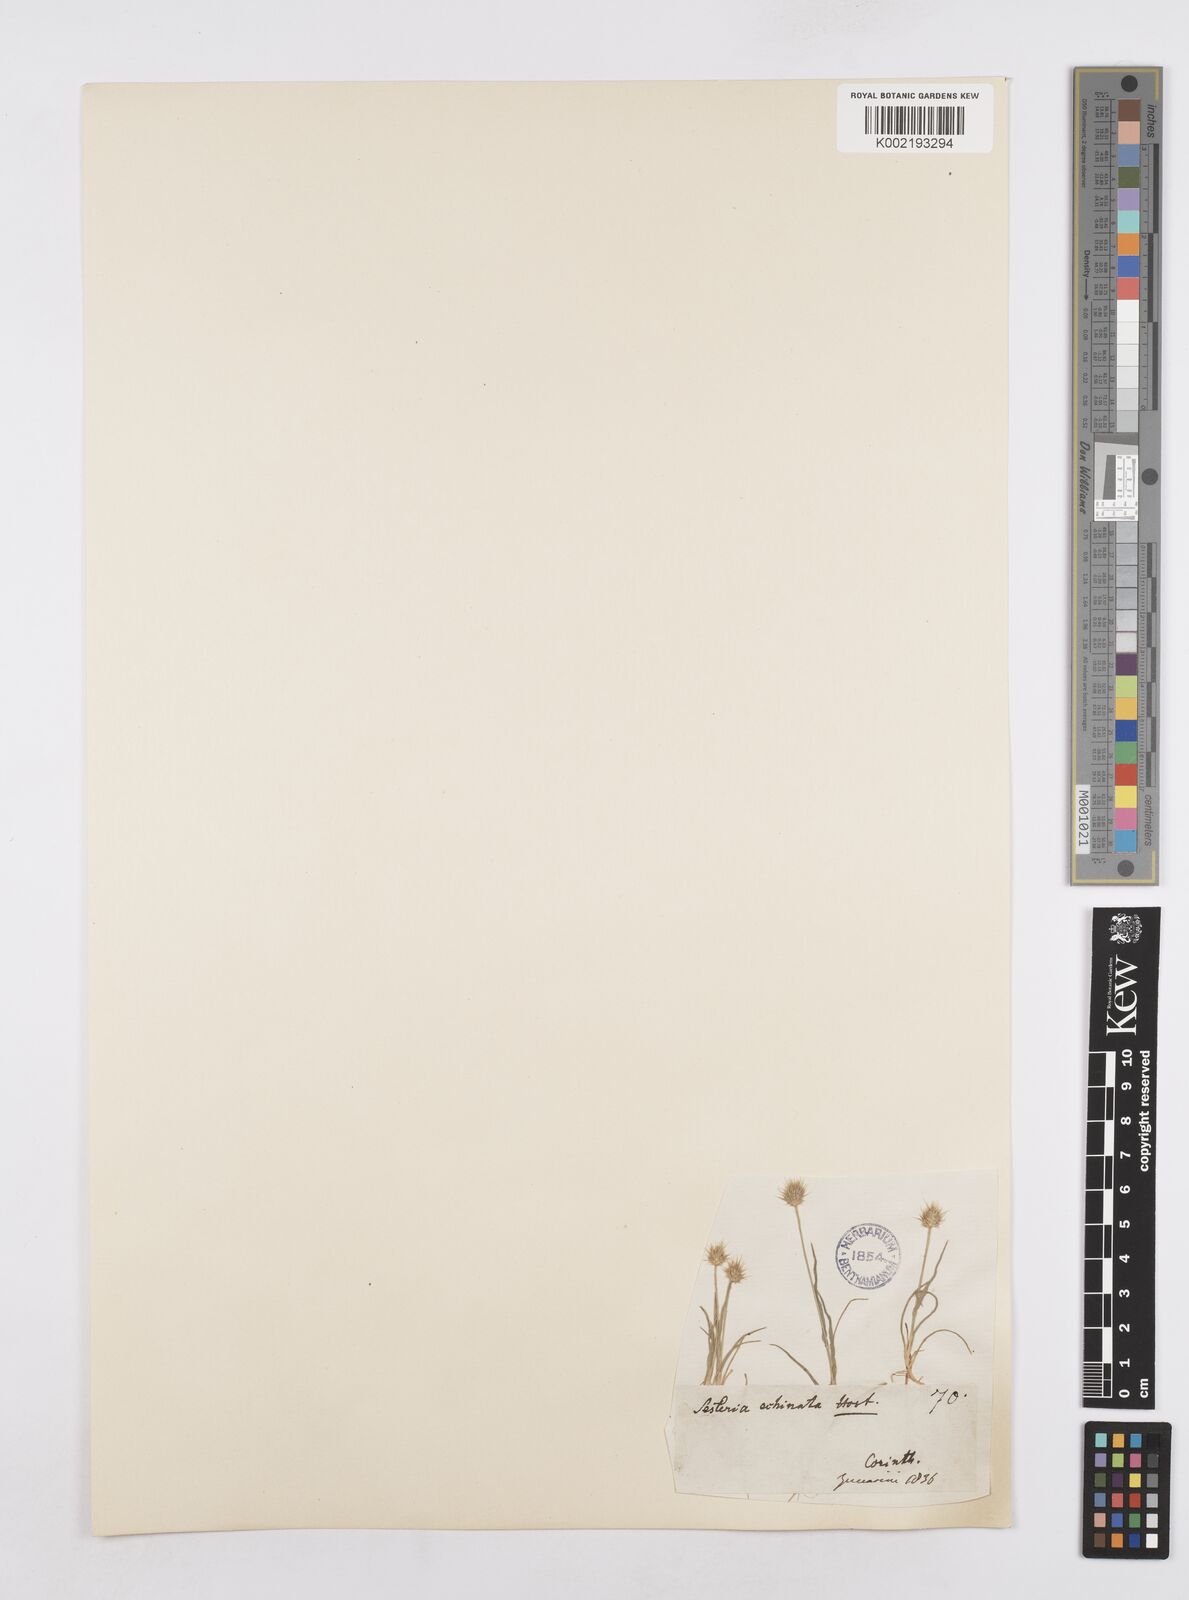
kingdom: Plantae
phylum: Tracheophyta
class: Liliopsida
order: Poales
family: Poaceae
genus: Echinaria
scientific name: Echinaria capitata
